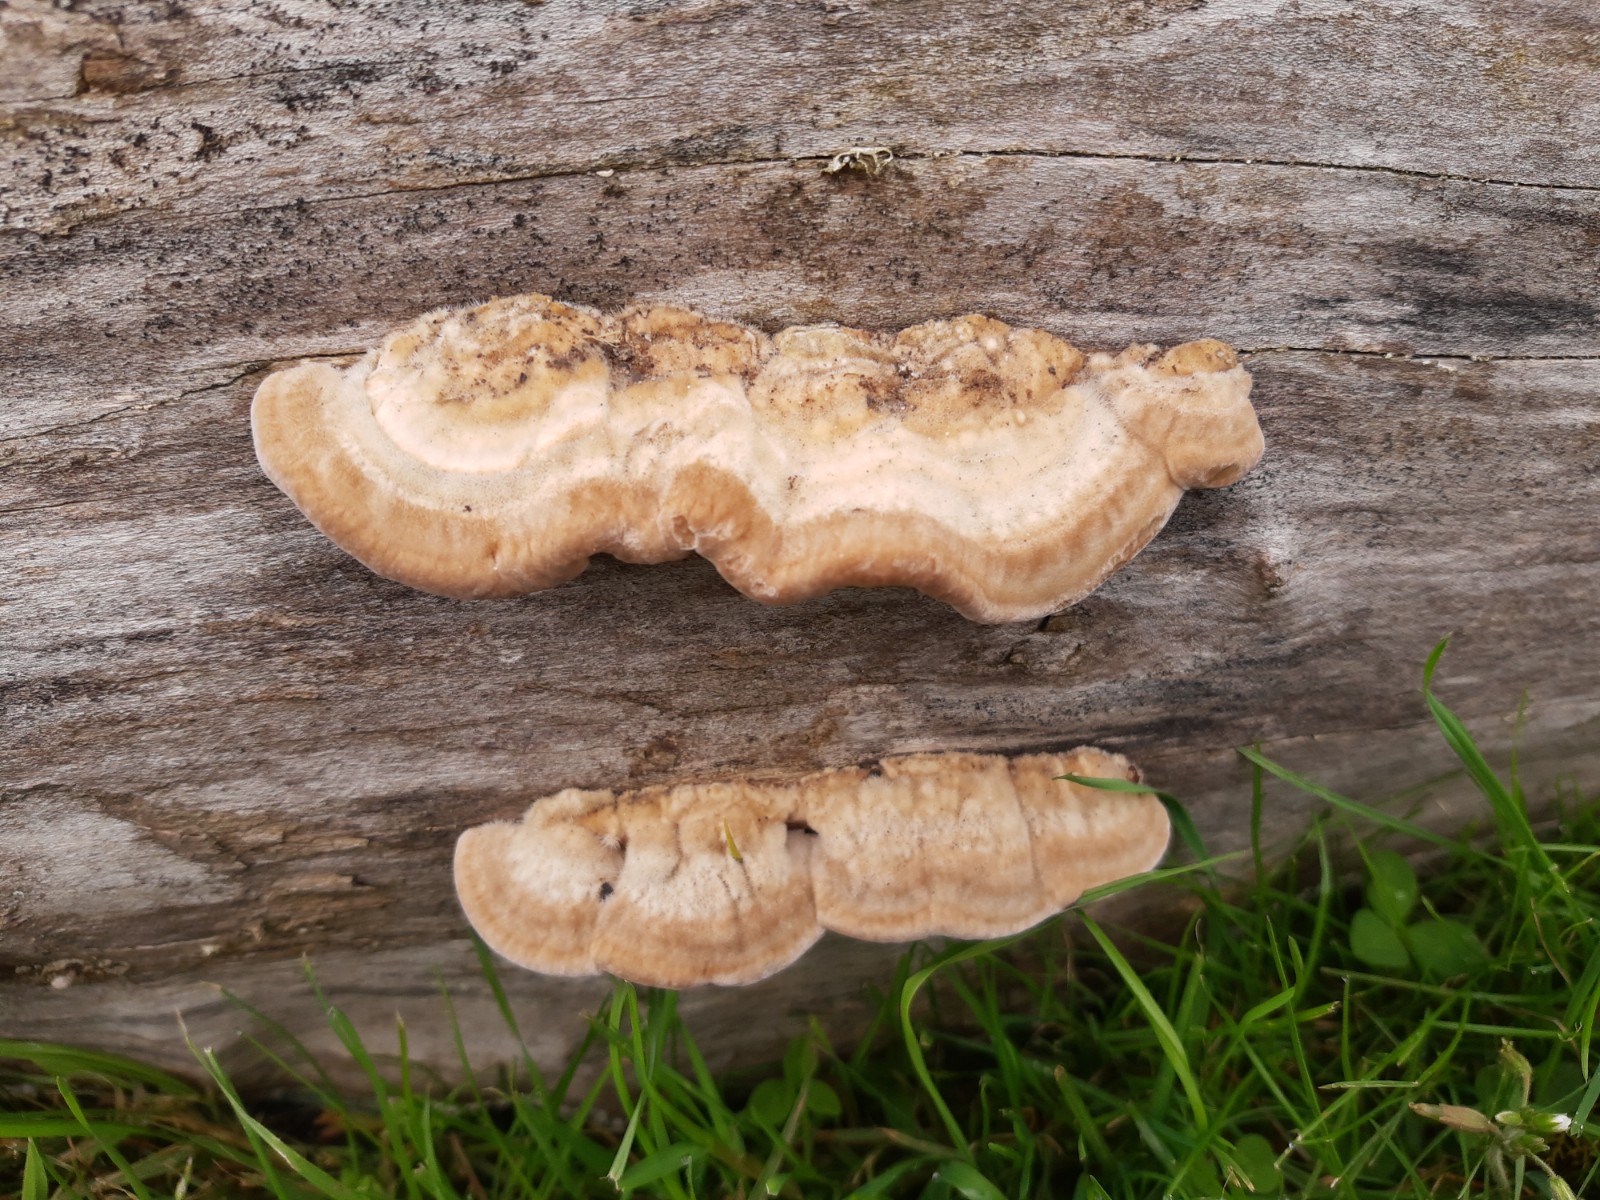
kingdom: Fungi
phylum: Basidiomycota
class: Agaricomycetes
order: Polyporales
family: Polyporaceae
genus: Trametes
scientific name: Trametes versicolor
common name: broget læderporesvamp
